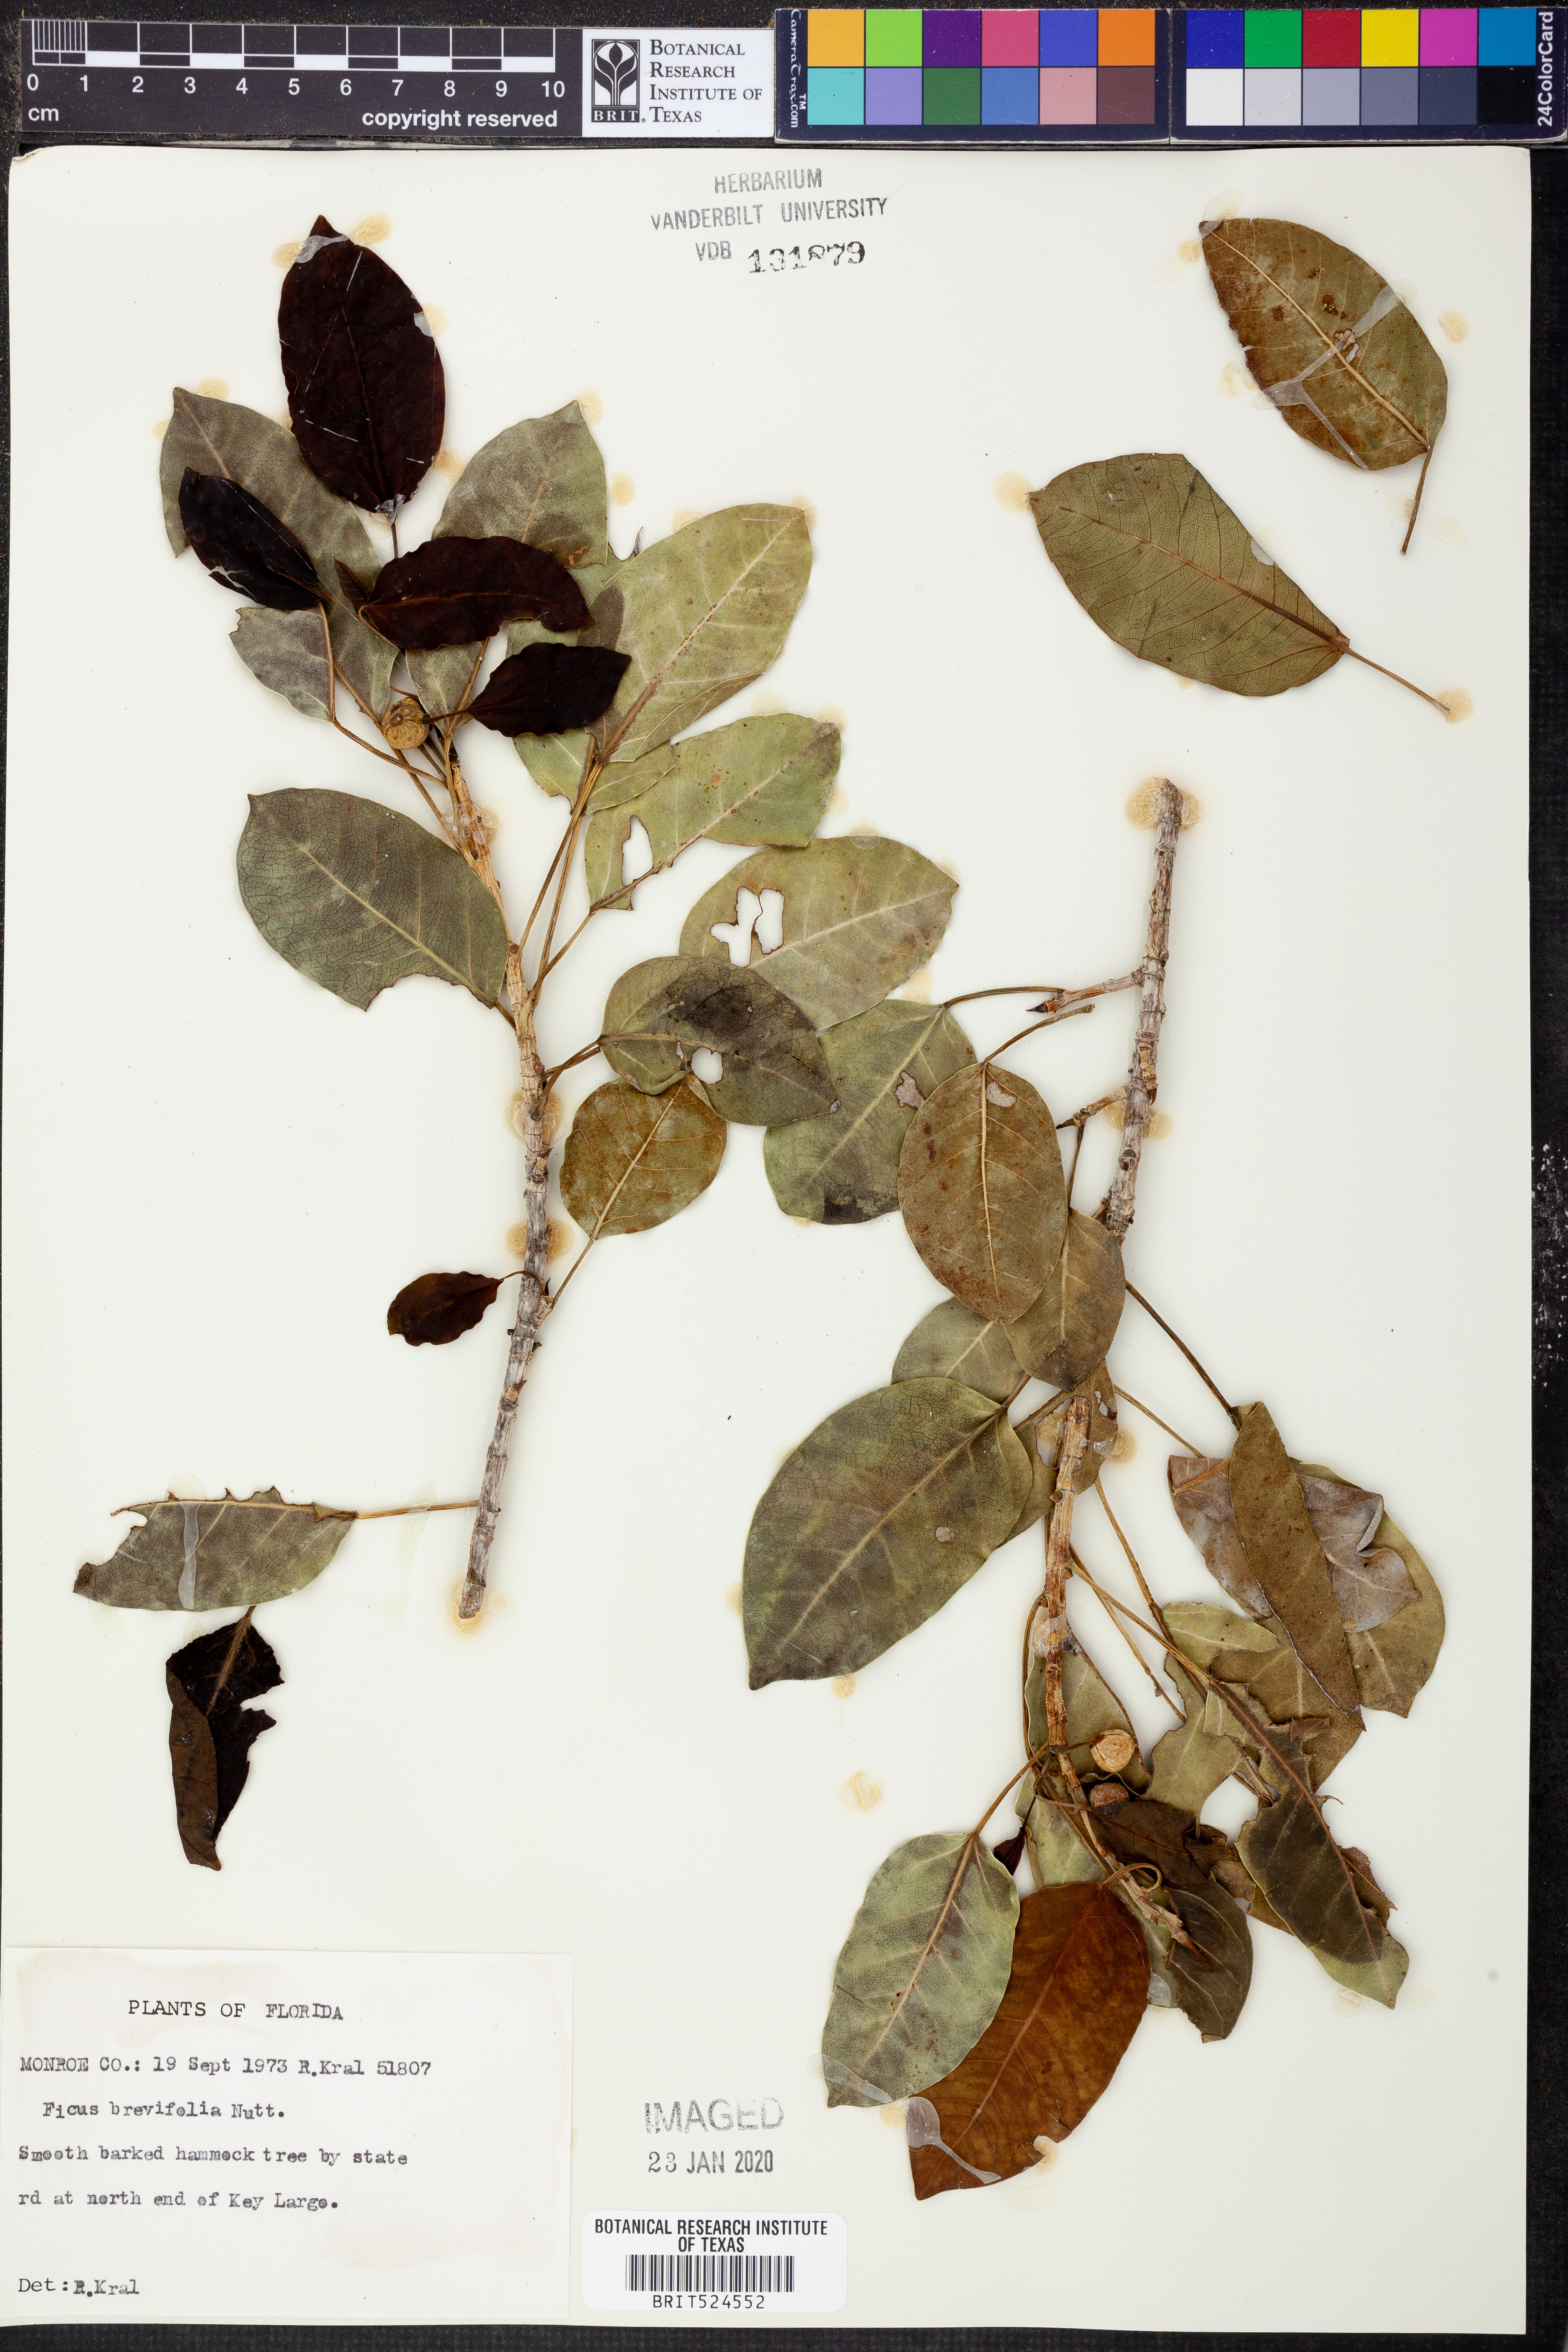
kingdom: Plantae
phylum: Tracheophyta
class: Magnoliopsida
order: Rosales
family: Moraceae
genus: Ficus
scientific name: Ficus citrifolia
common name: Strangler fig
